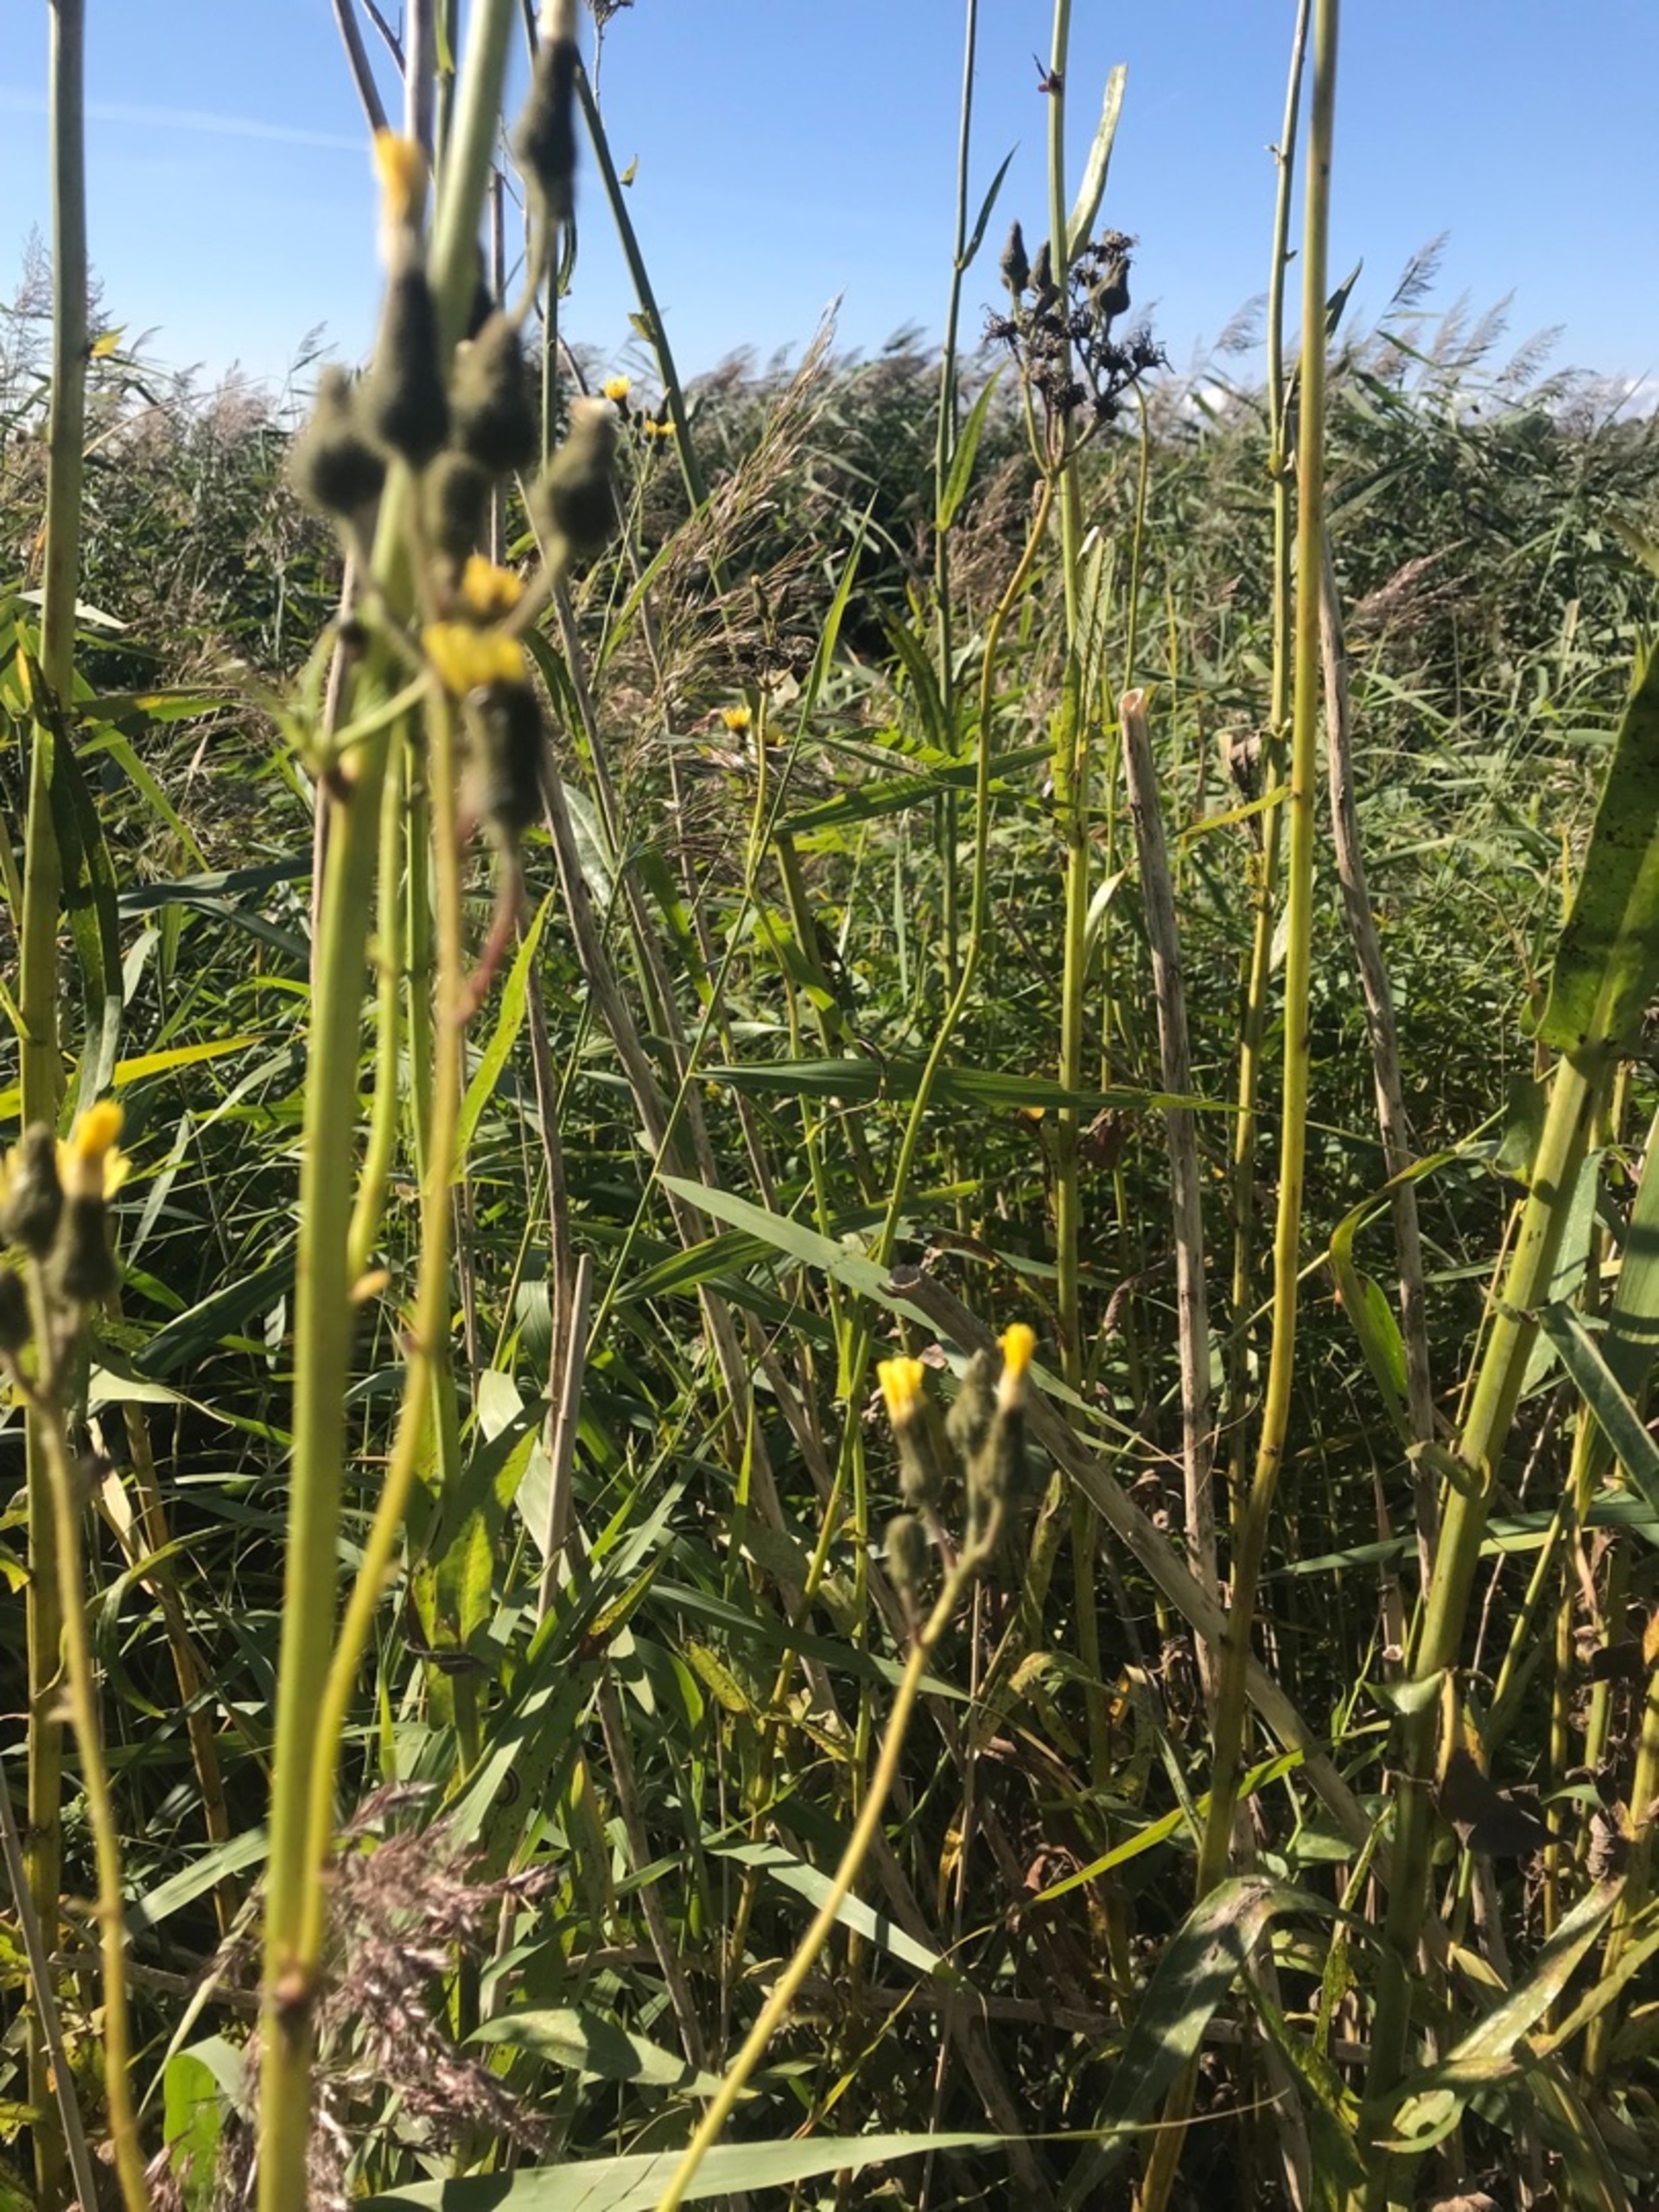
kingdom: Plantae
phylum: Tracheophyta
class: Magnoliopsida
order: Asterales
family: Asteraceae
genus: Sonchus
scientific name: Sonchus palustris
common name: Kær-svinemælk
